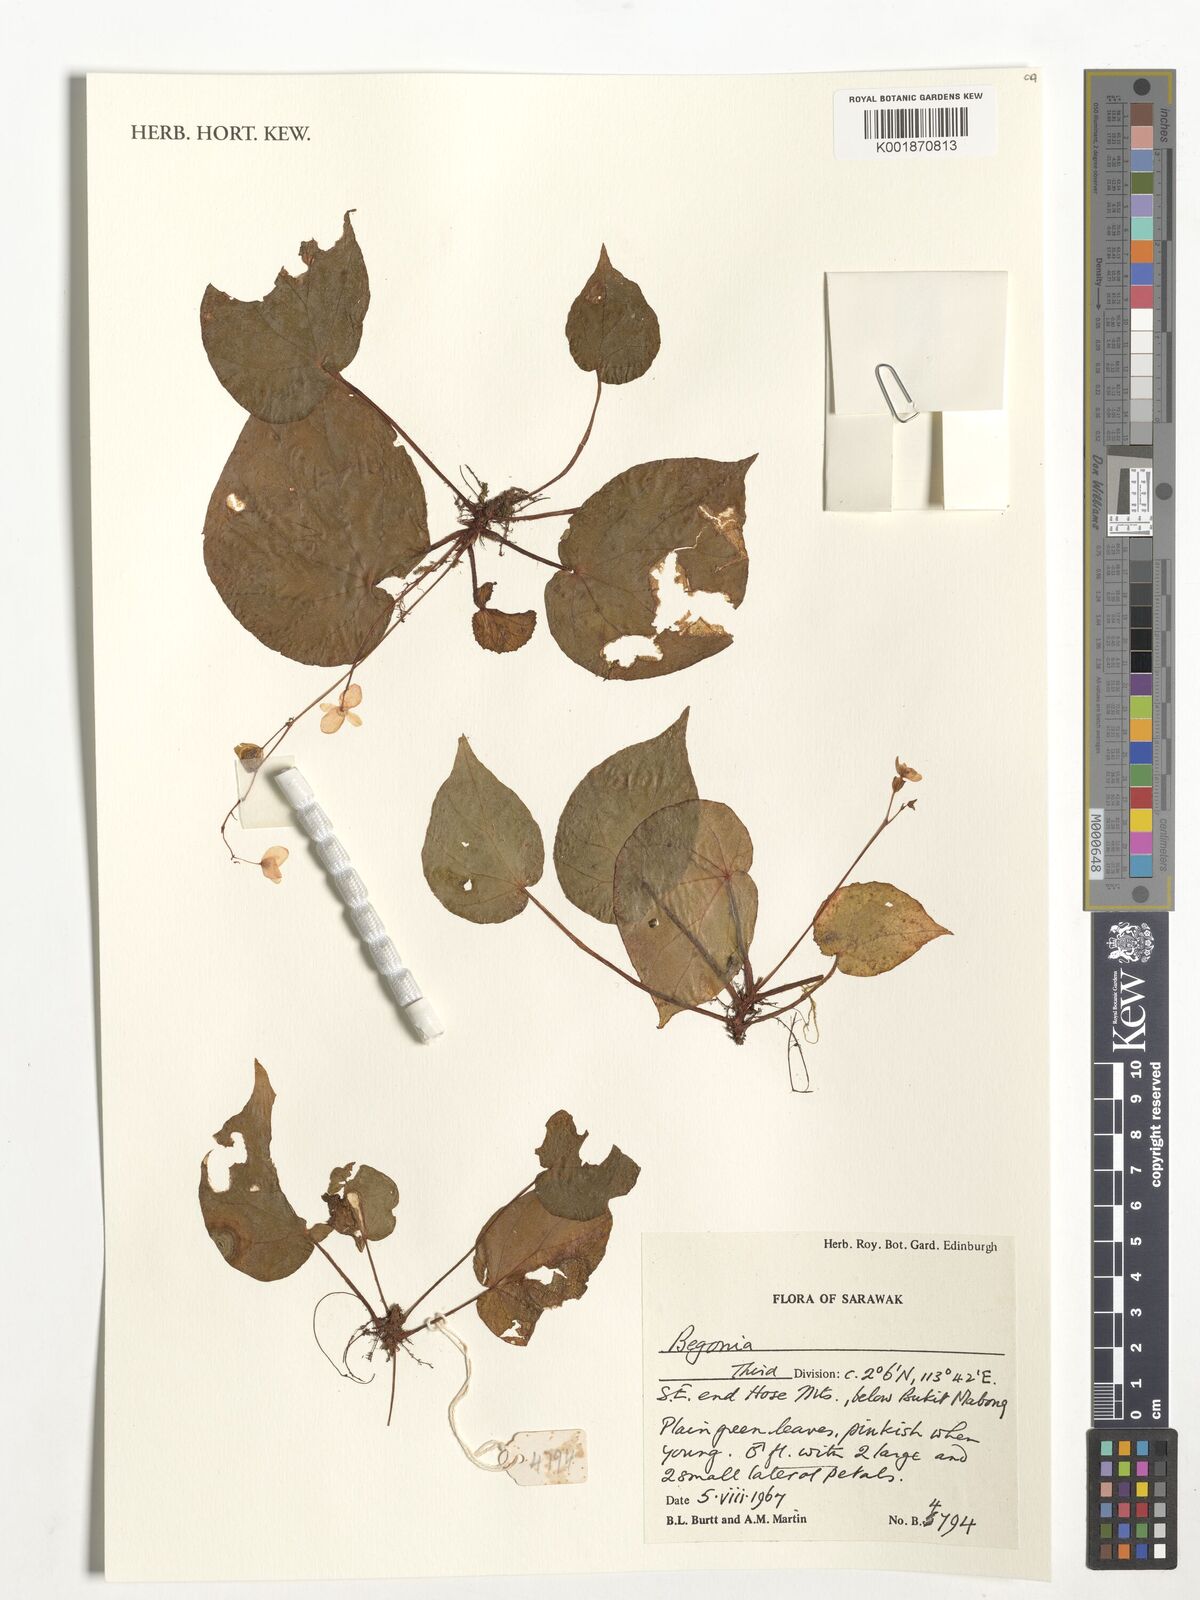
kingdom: Plantae
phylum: Tracheophyta
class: Magnoliopsida
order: Cucurbitales
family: Begoniaceae
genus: Begonia
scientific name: Begonia
